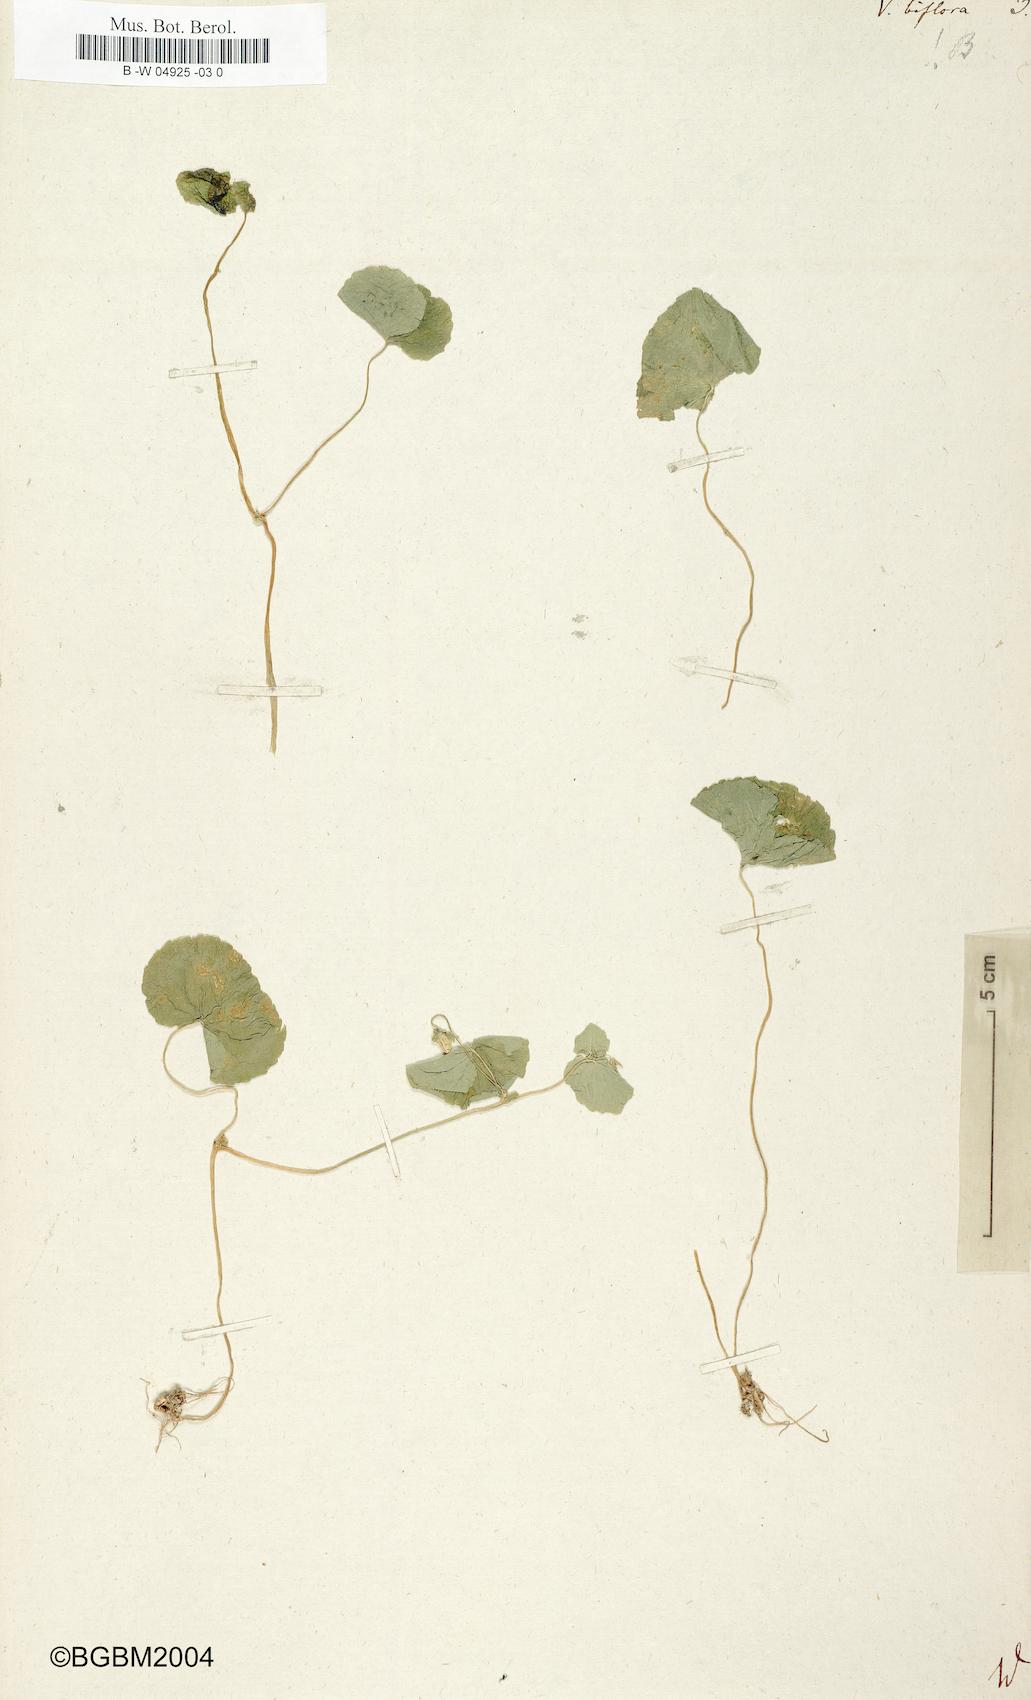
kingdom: Plantae
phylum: Tracheophyta
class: Magnoliopsida
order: Malpighiales
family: Violaceae
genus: Viola
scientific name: Viola biflora
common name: Alpine yellow violet
